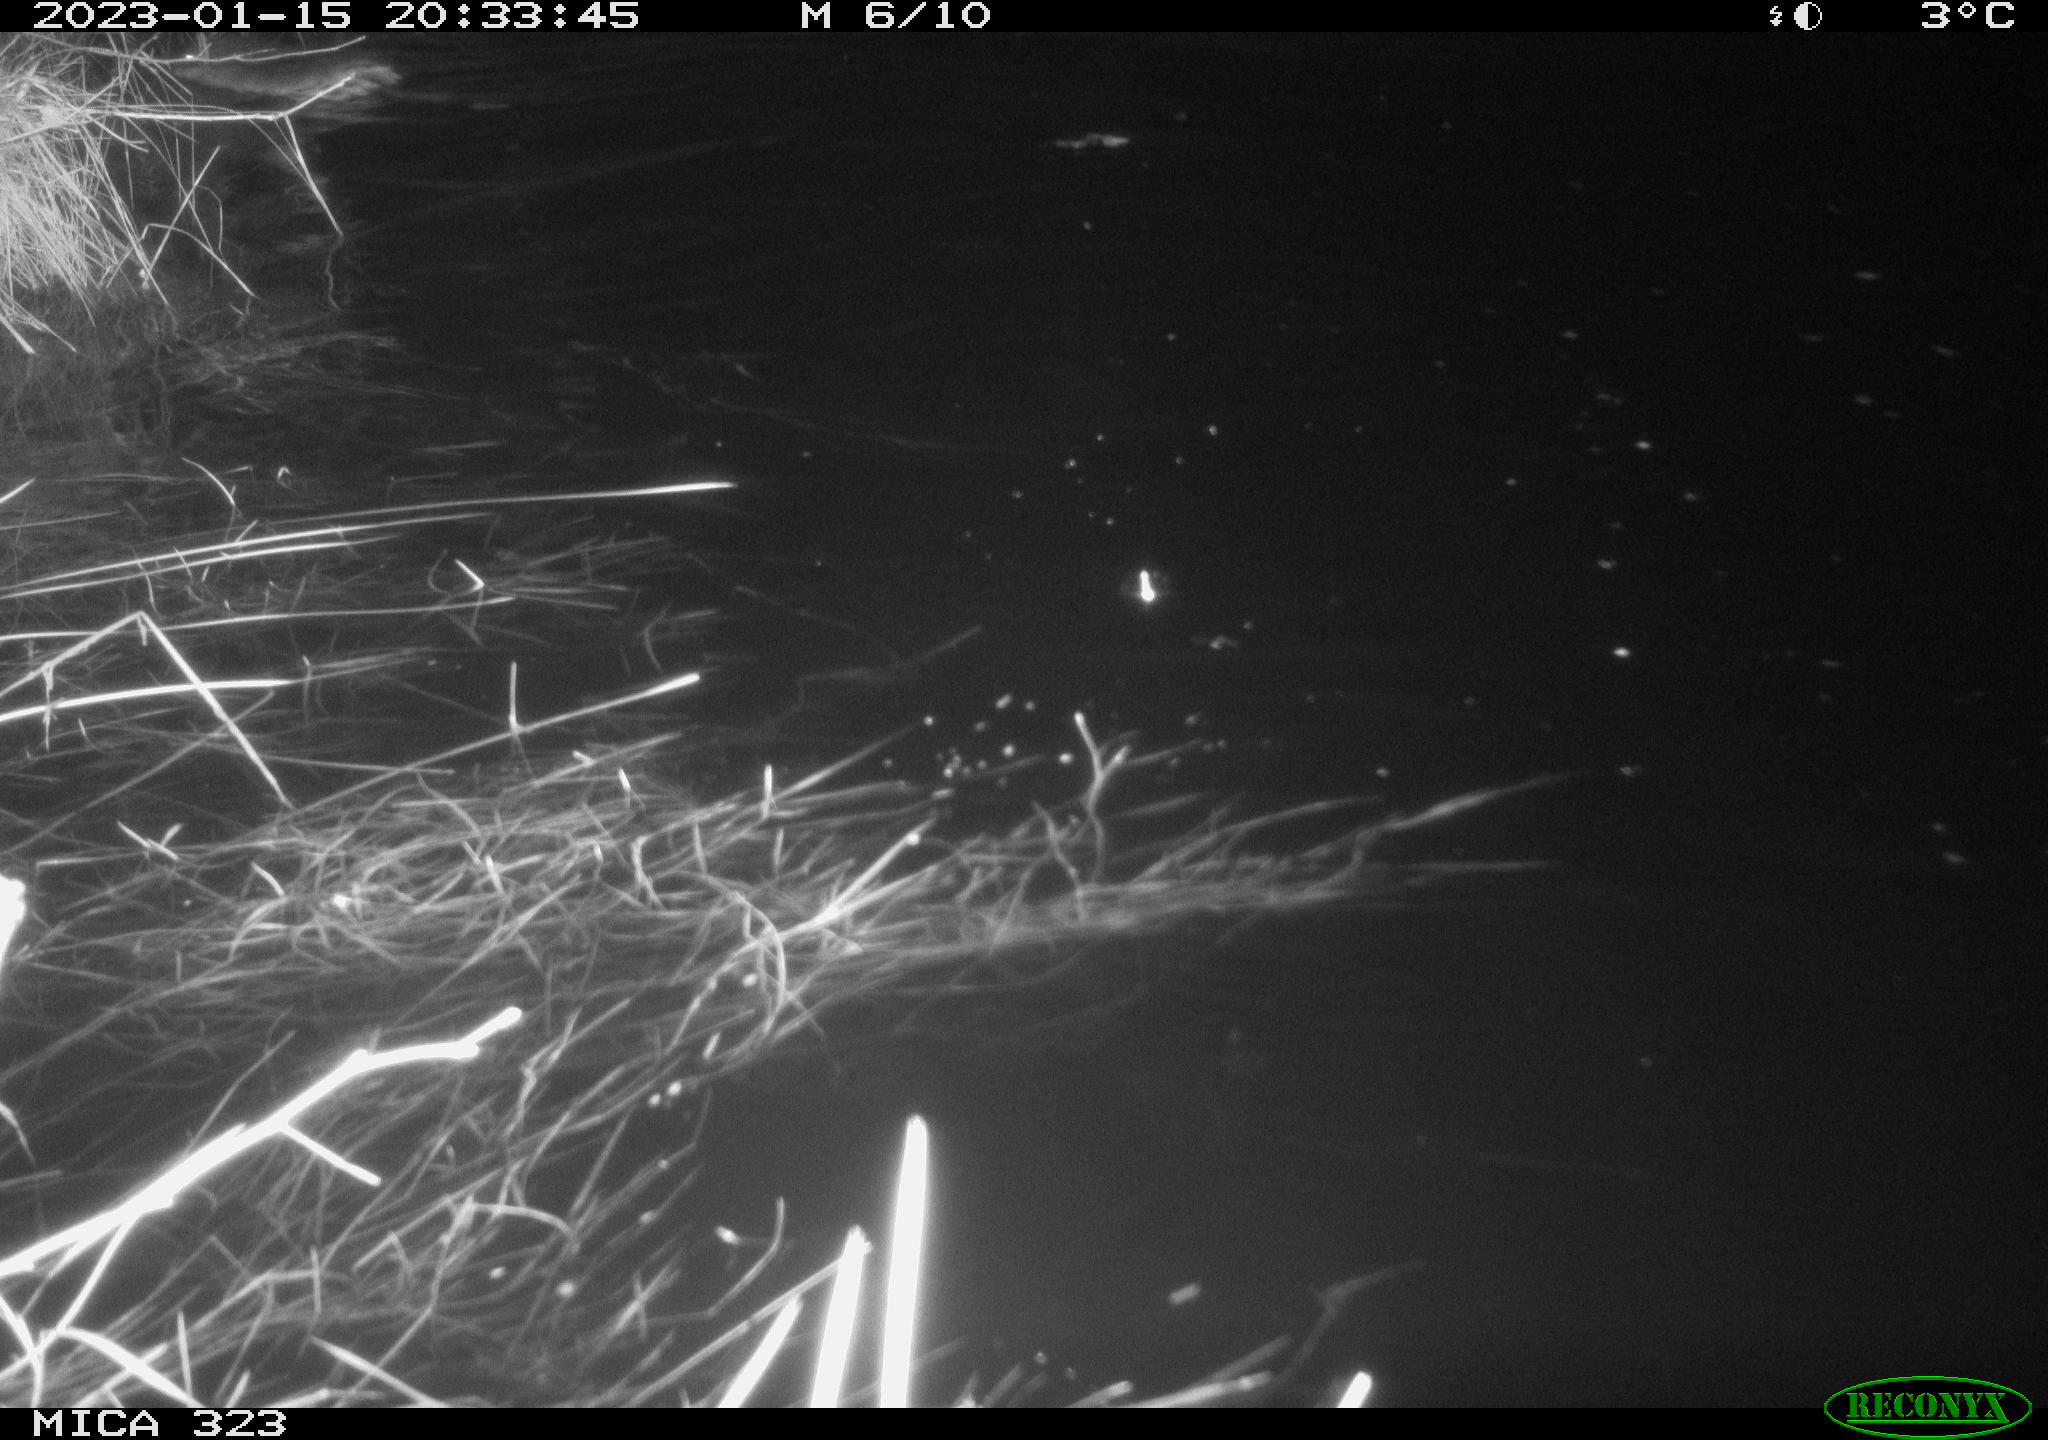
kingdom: Animalia
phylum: Chordata
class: Mammalia
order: Rodentia
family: Cricetidae
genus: Ondatra
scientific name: Ondatra zibethicus
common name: Muskrat
